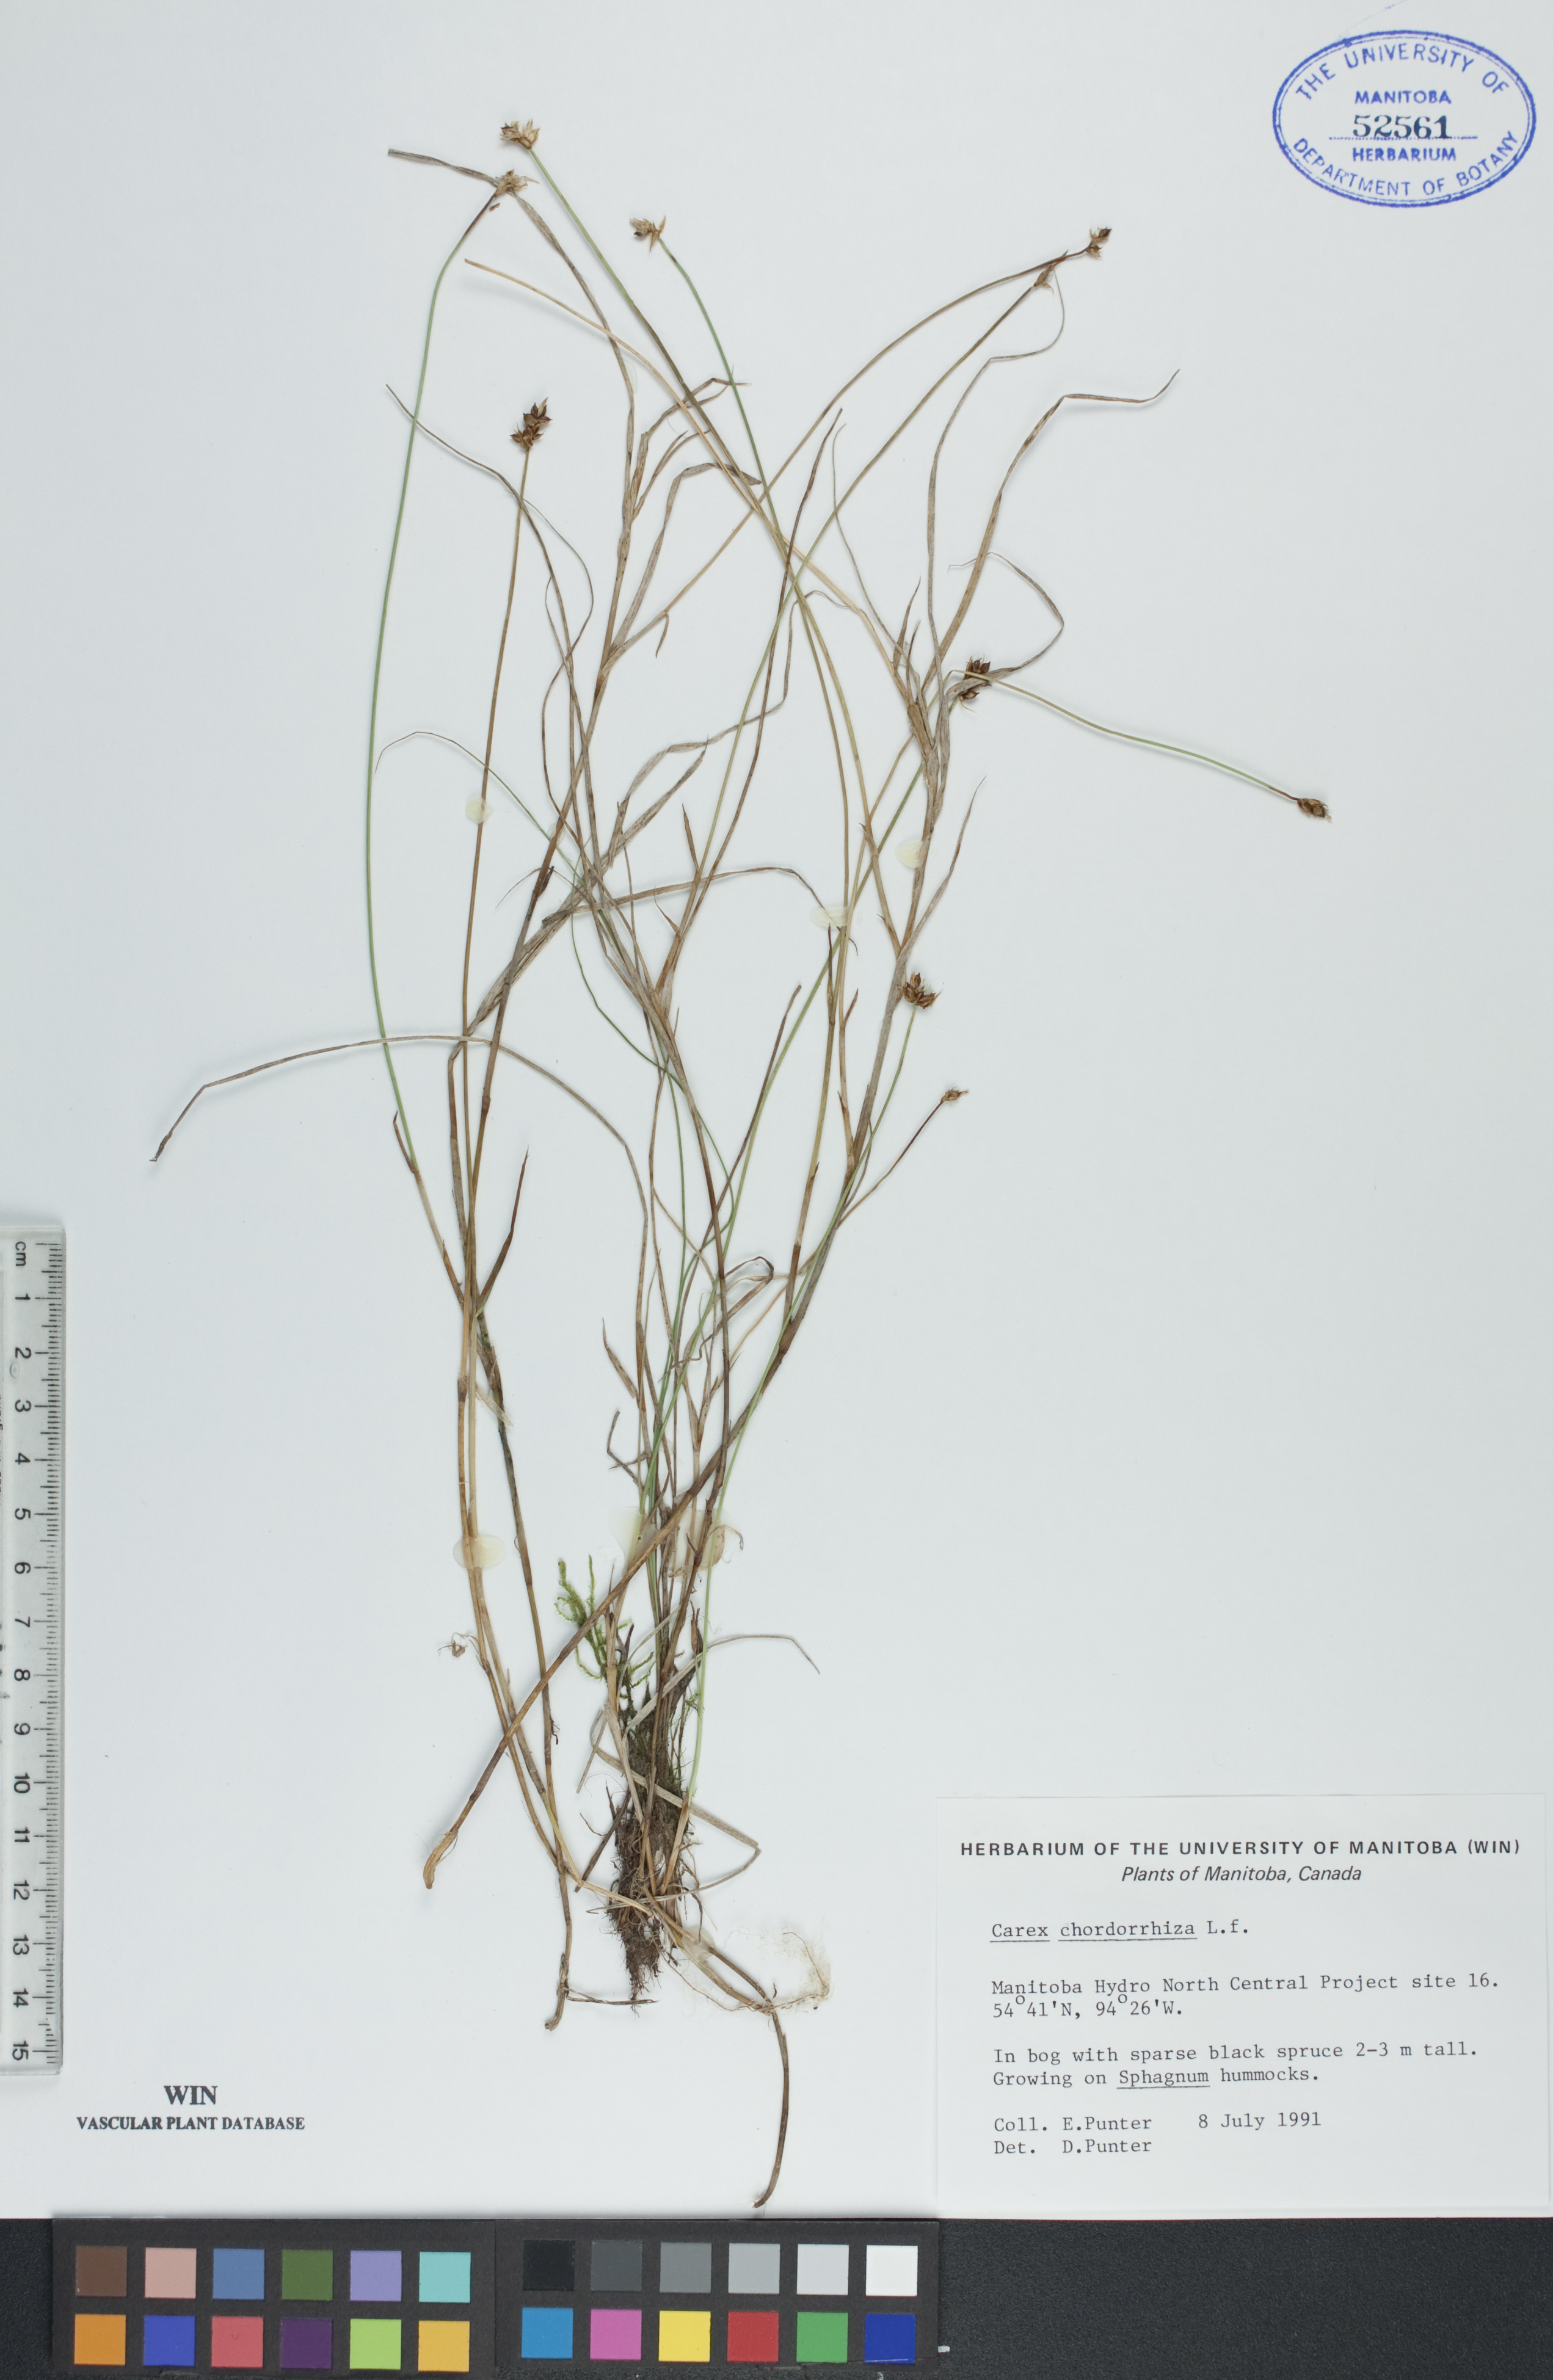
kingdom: Plantae
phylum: Tracheophyta
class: Liliopsida
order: Poales
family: Cyperaceae
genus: Carex
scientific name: Carex chordorrhiza
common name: String sedge
